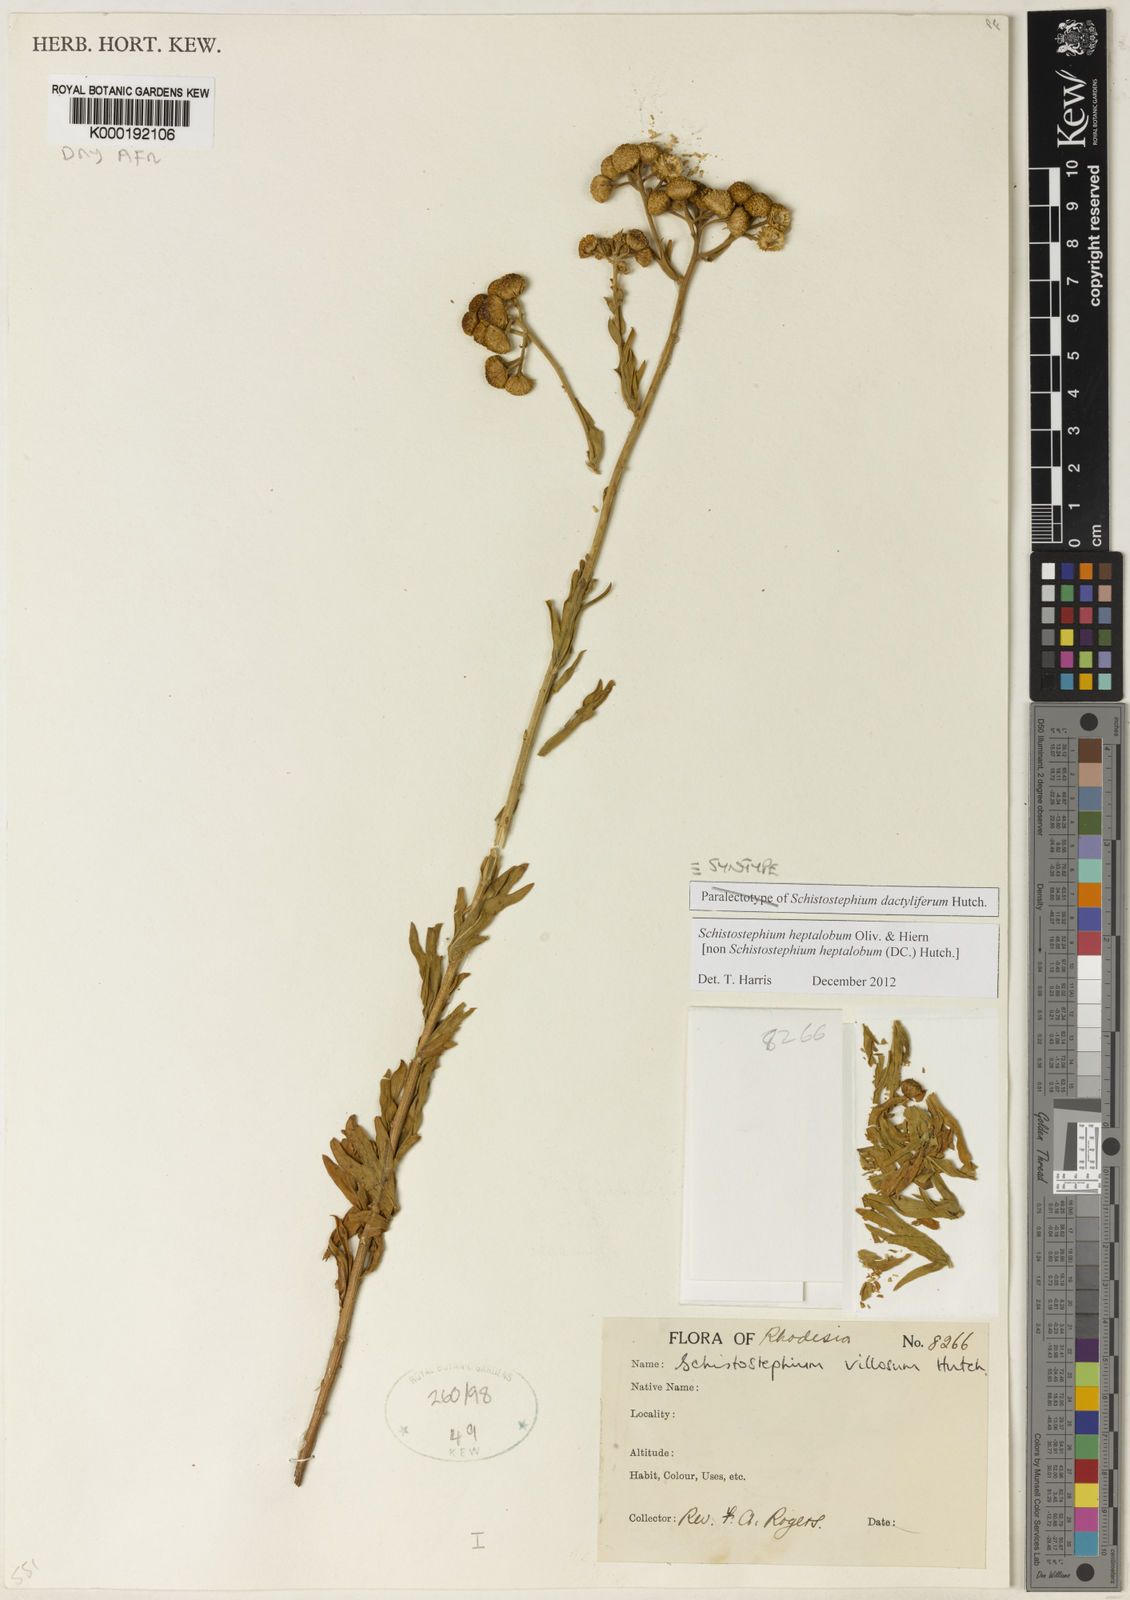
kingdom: Plantae
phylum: Tracheophyta
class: Magnoliopsida
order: Asterales
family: Asteraceae
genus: Schistostephium
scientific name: Schistostephium heptalobum
